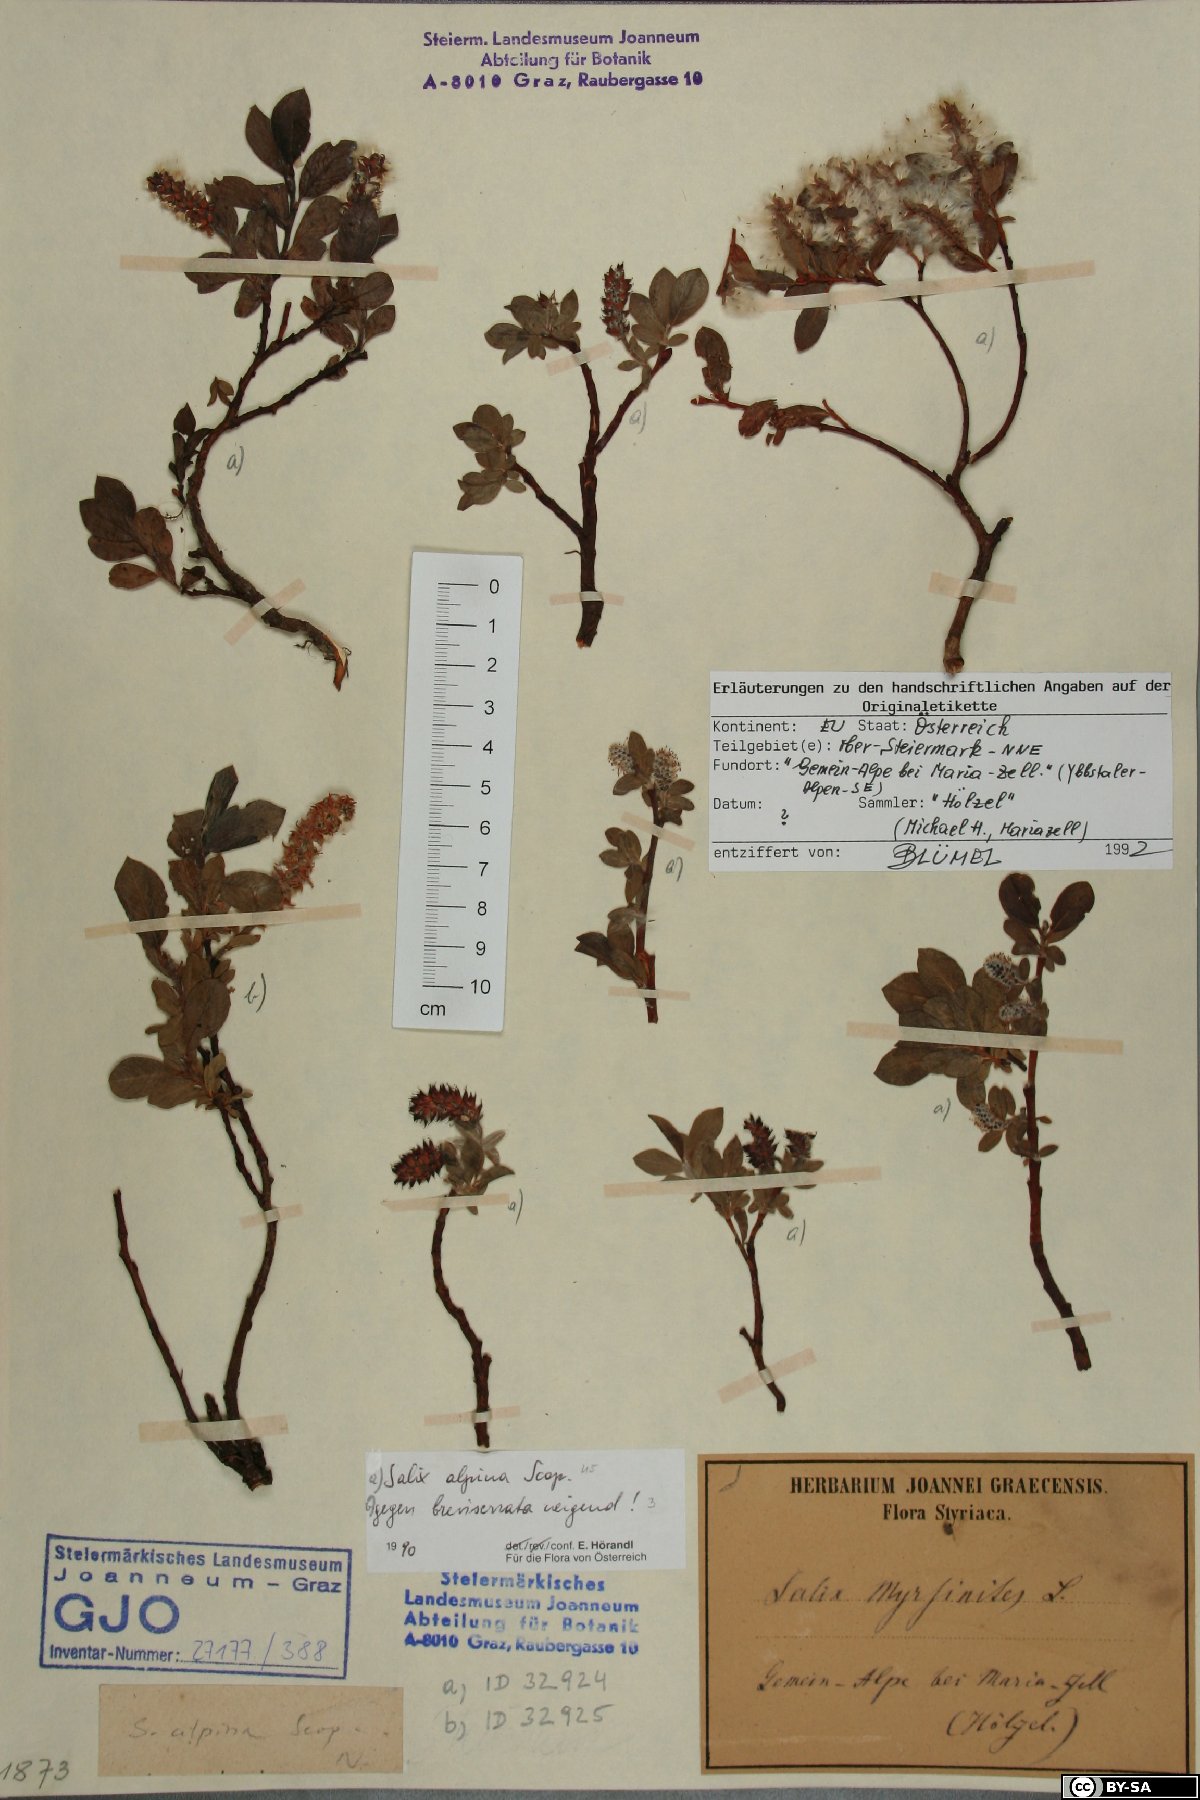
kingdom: Plantae
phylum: Tracheophyta
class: Magnoliopsida
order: Malpighiales
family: Salicaceae
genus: Salix
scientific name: Salix alpina
